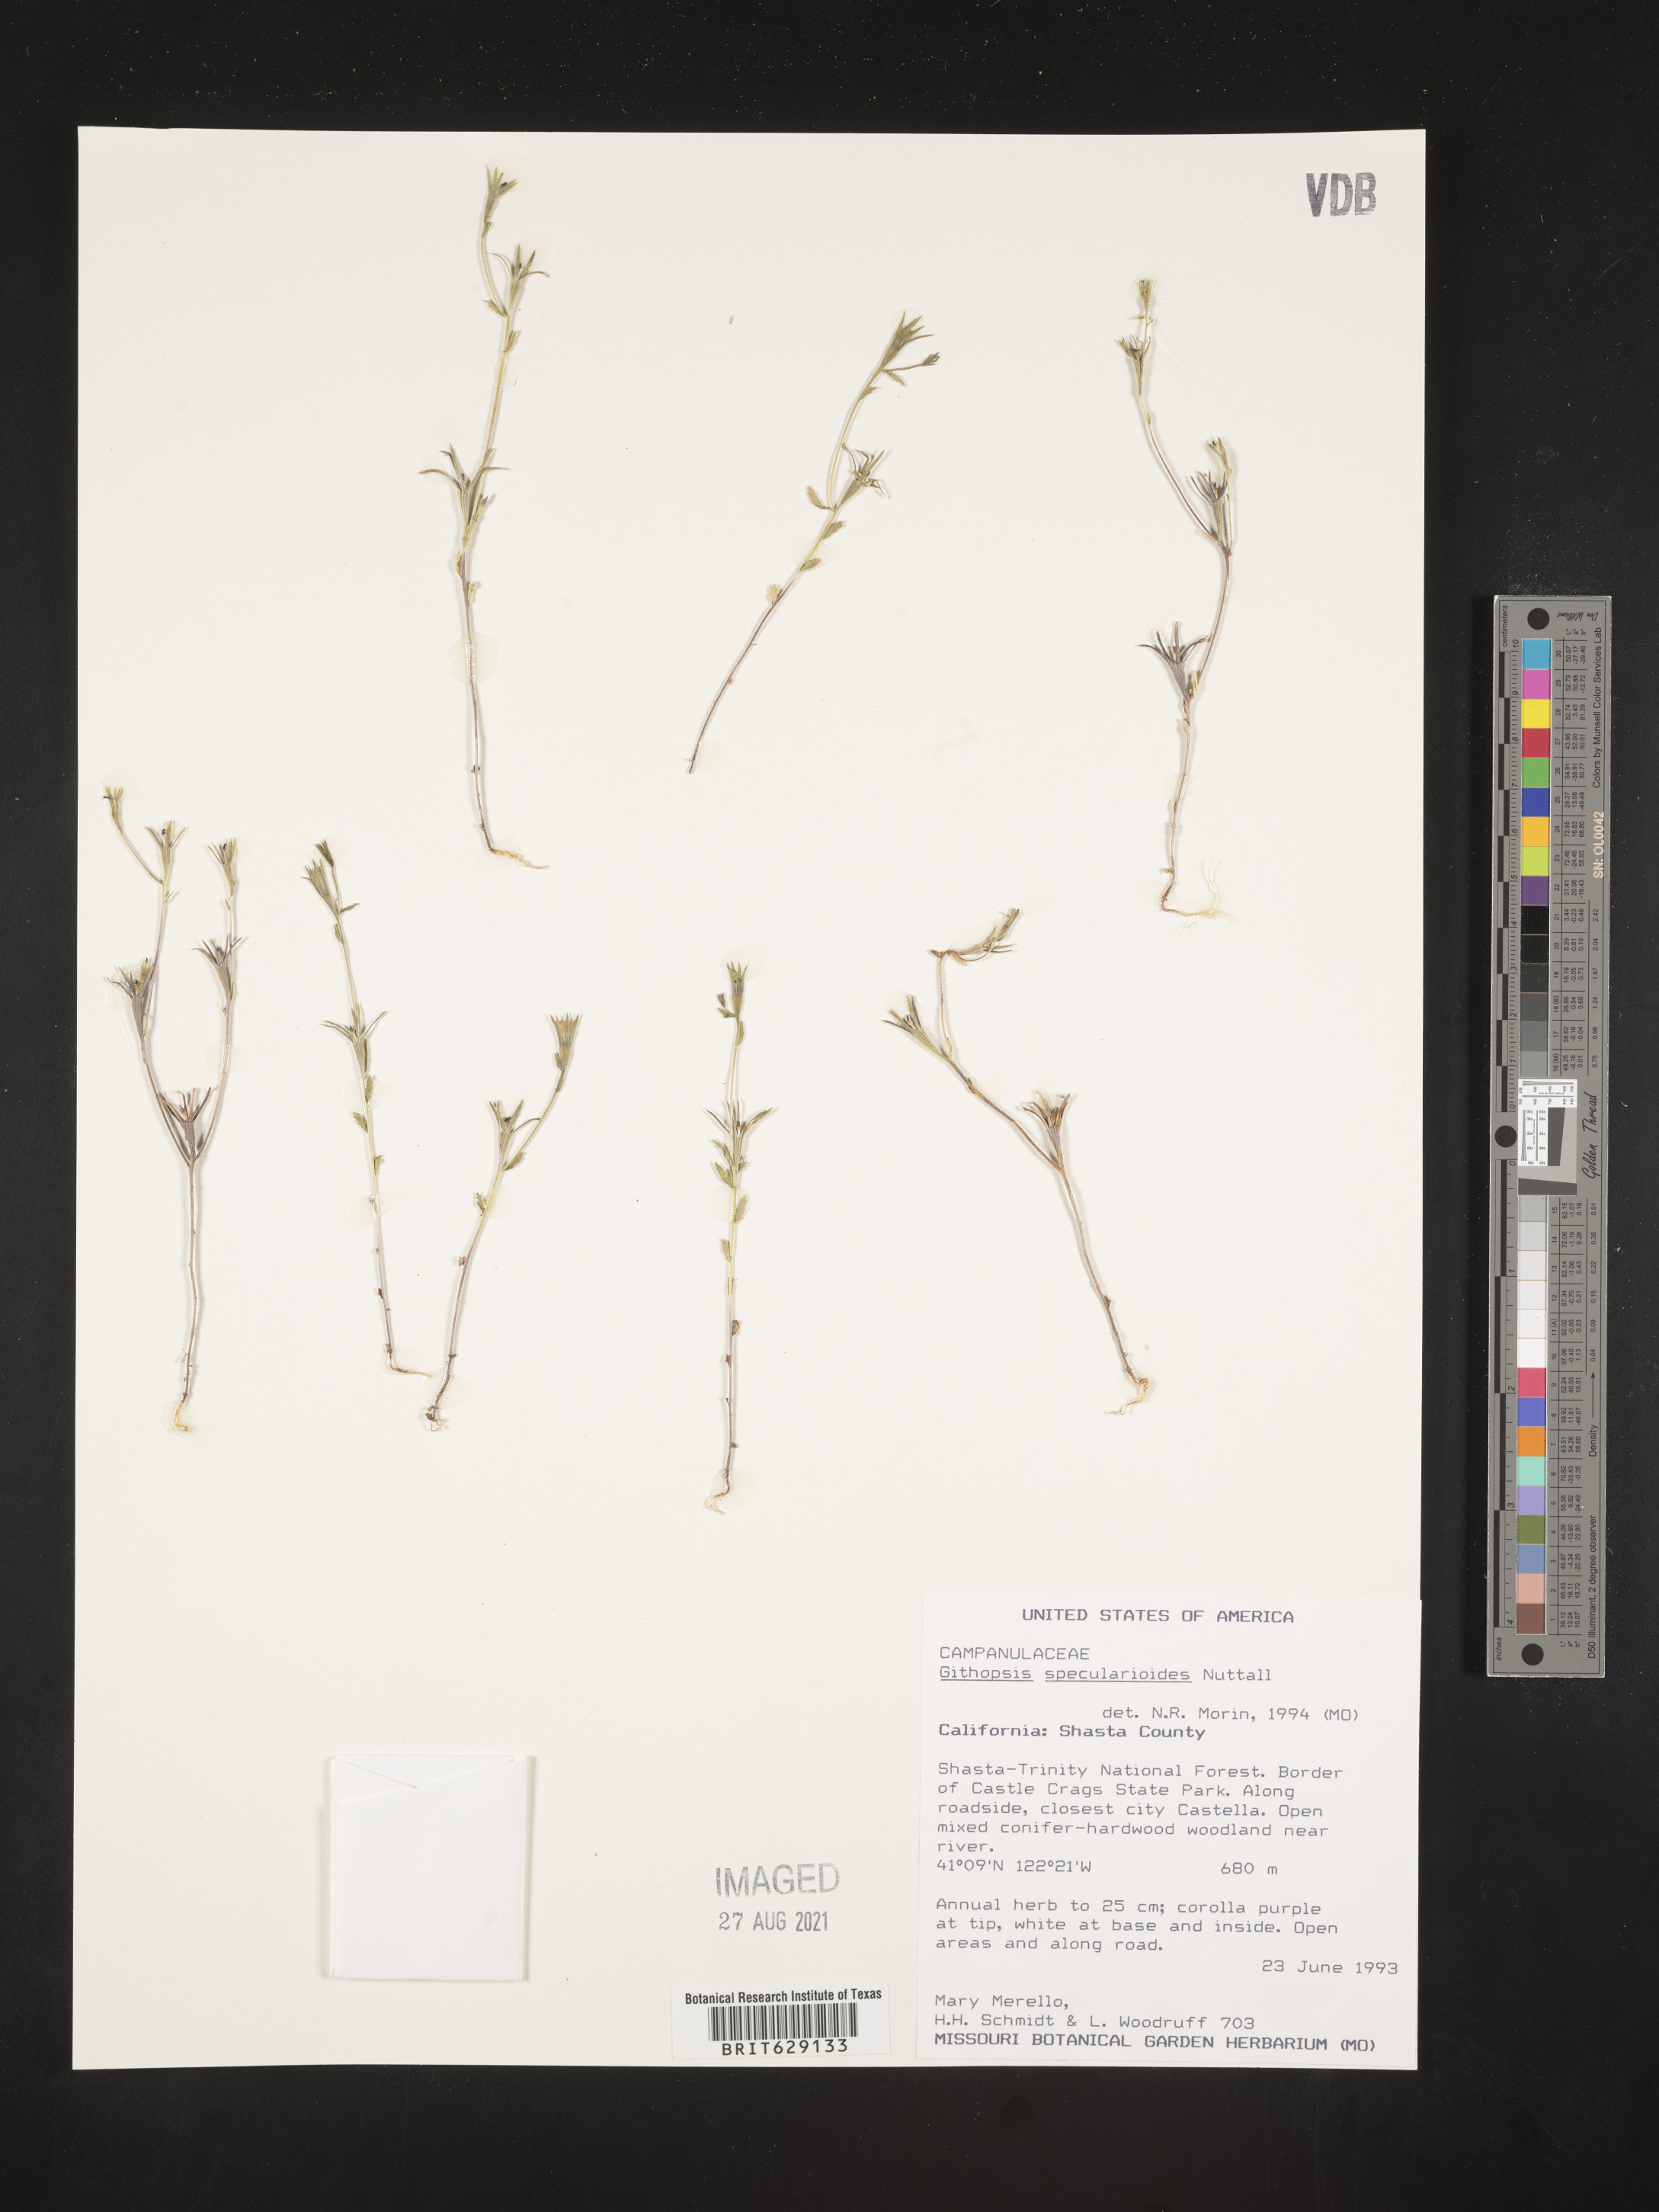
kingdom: Plantae
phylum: Tracheophyta
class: Magnoliopsida
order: Asterales
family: Campanulaceae
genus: Githopsis
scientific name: Githopsis specularioides
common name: Common bluecup
